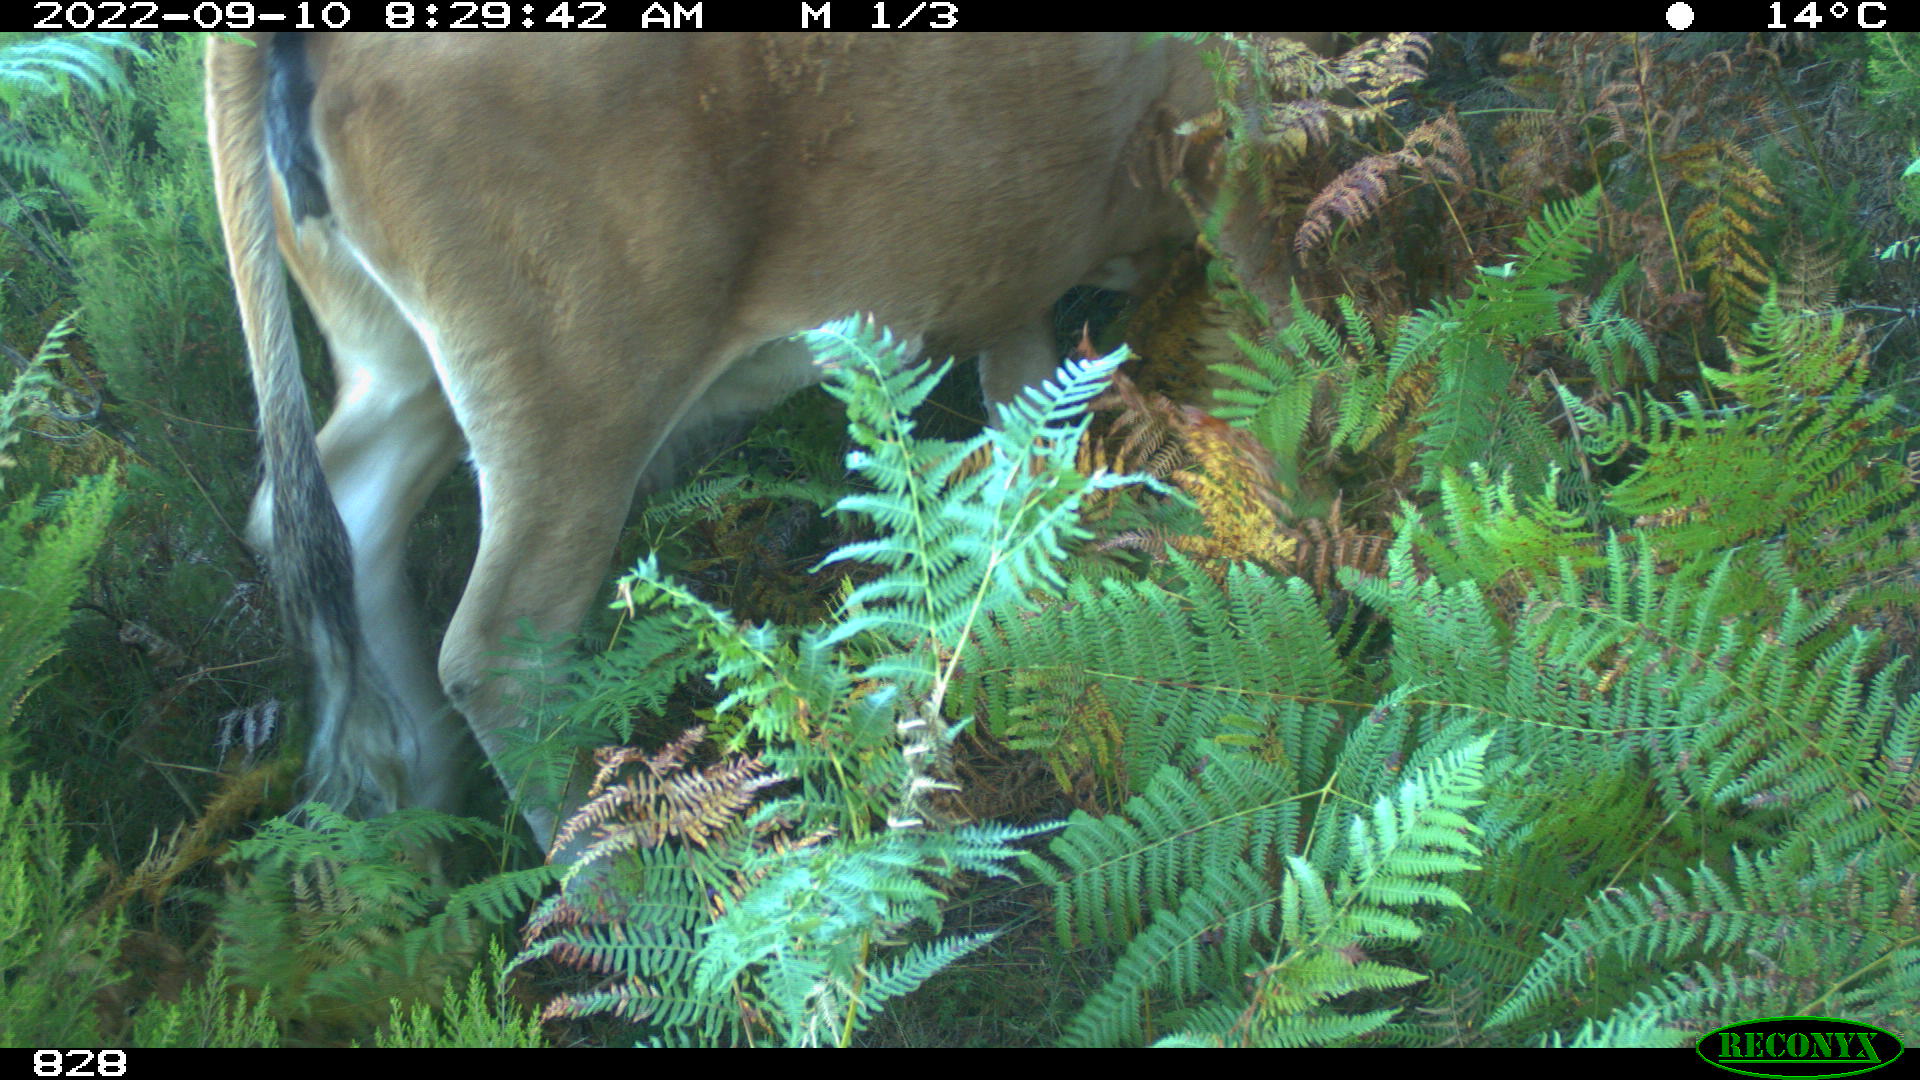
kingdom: Animalia
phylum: Chordata
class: Mammalia
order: Artiodactyla
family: Bovidae
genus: Bos
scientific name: Bos taurus
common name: Domesticated cattle
